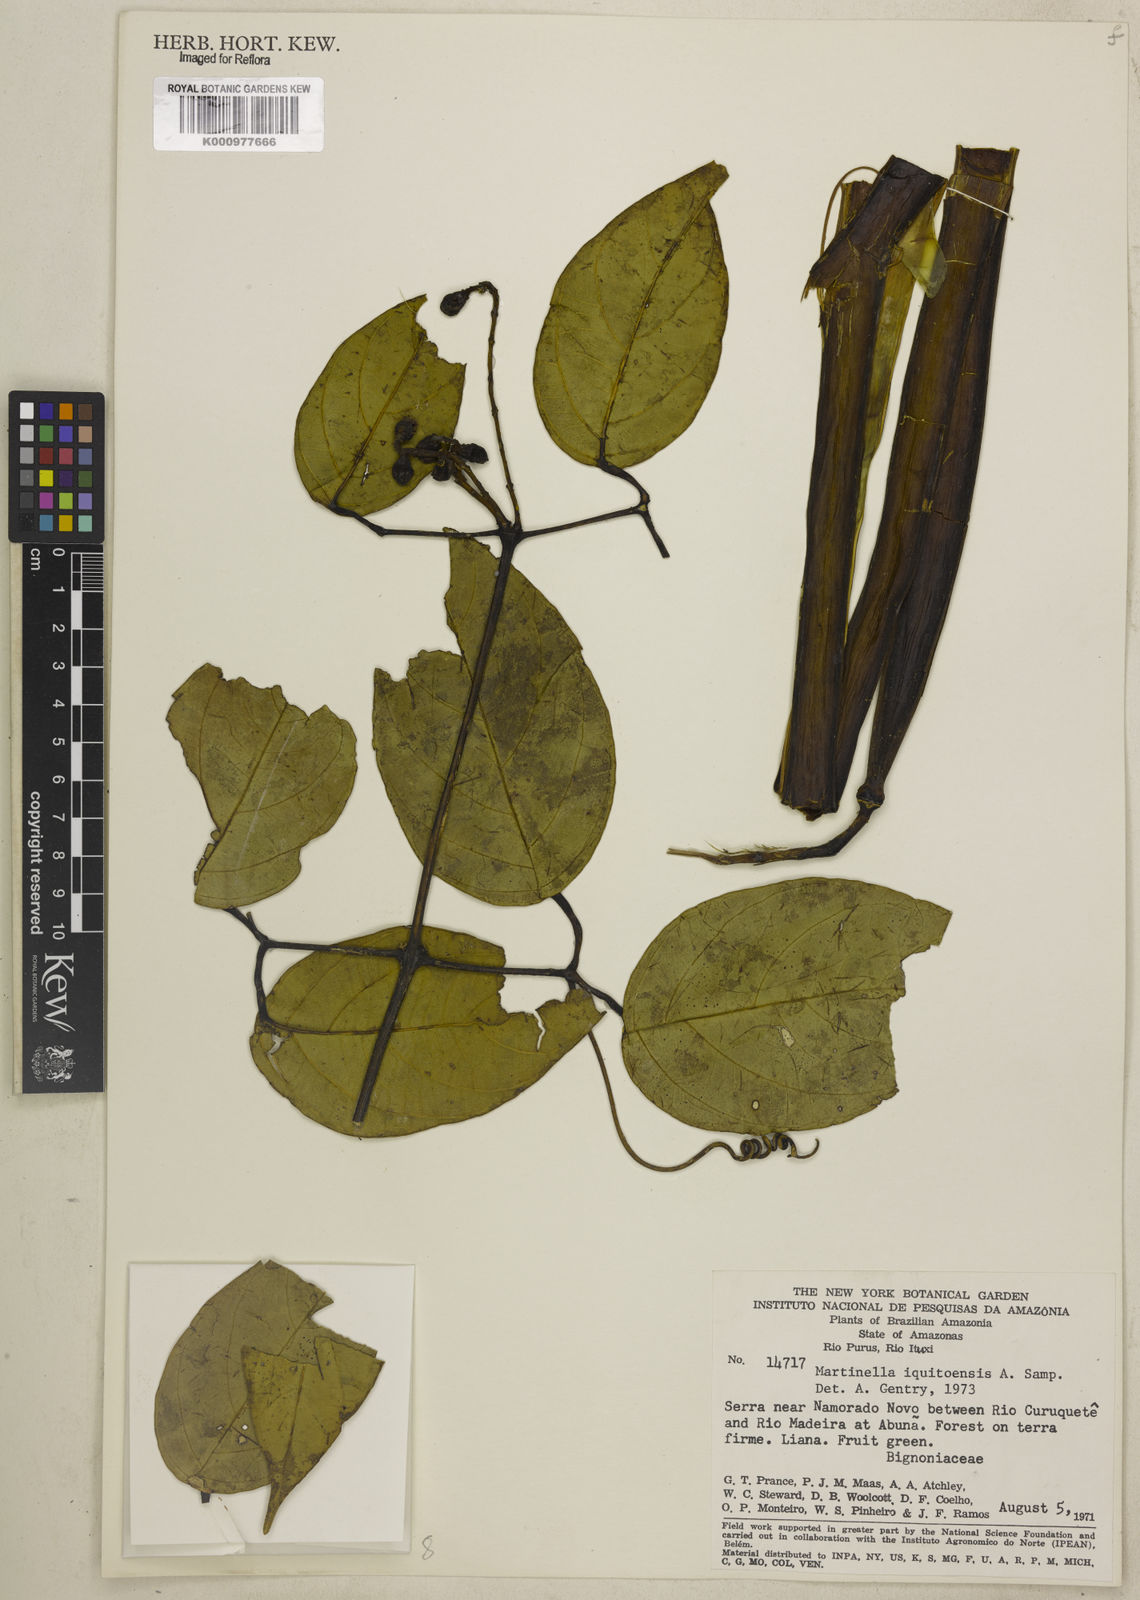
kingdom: Plantae
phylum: Tracheophyta
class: Magnoliopsida
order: Lamiales
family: Bignoniaceae
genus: Martinella
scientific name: Martinella iquitoensis
